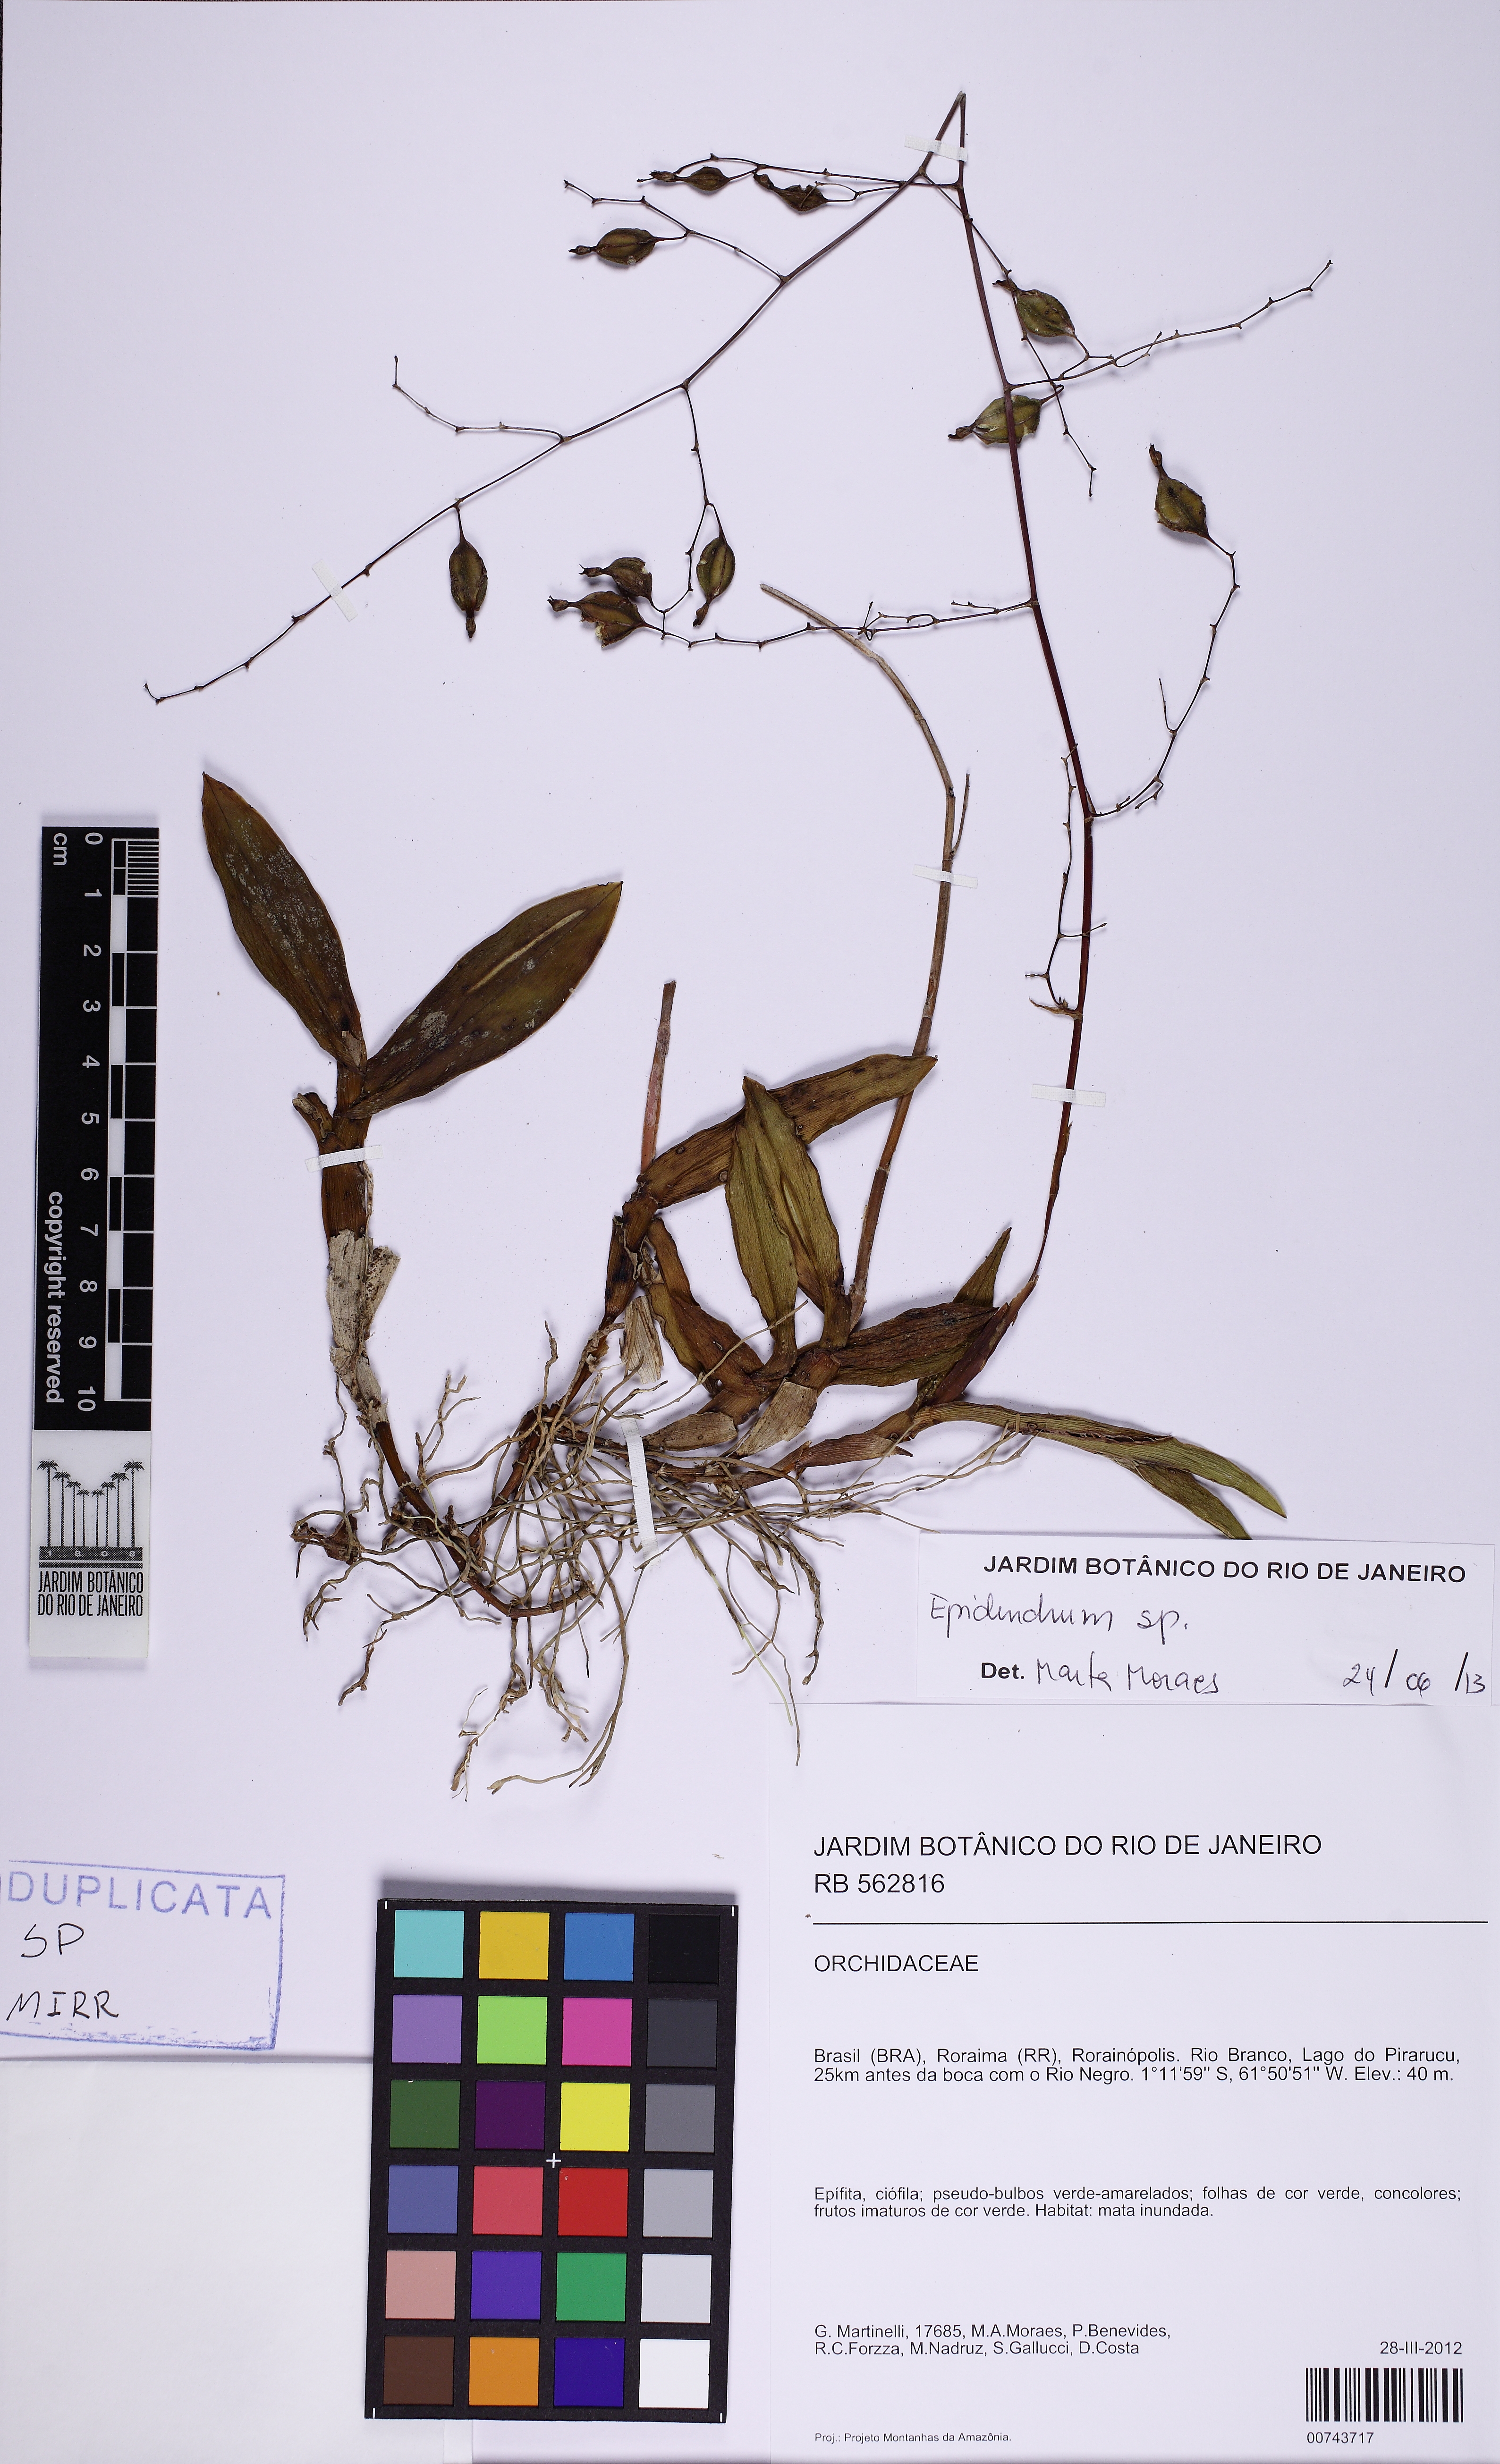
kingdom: Plantae
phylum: Tracheophyta
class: Liliopsida
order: Asparagales
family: Orchidaceae
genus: Epidendrum
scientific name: Epidendrum compressum
